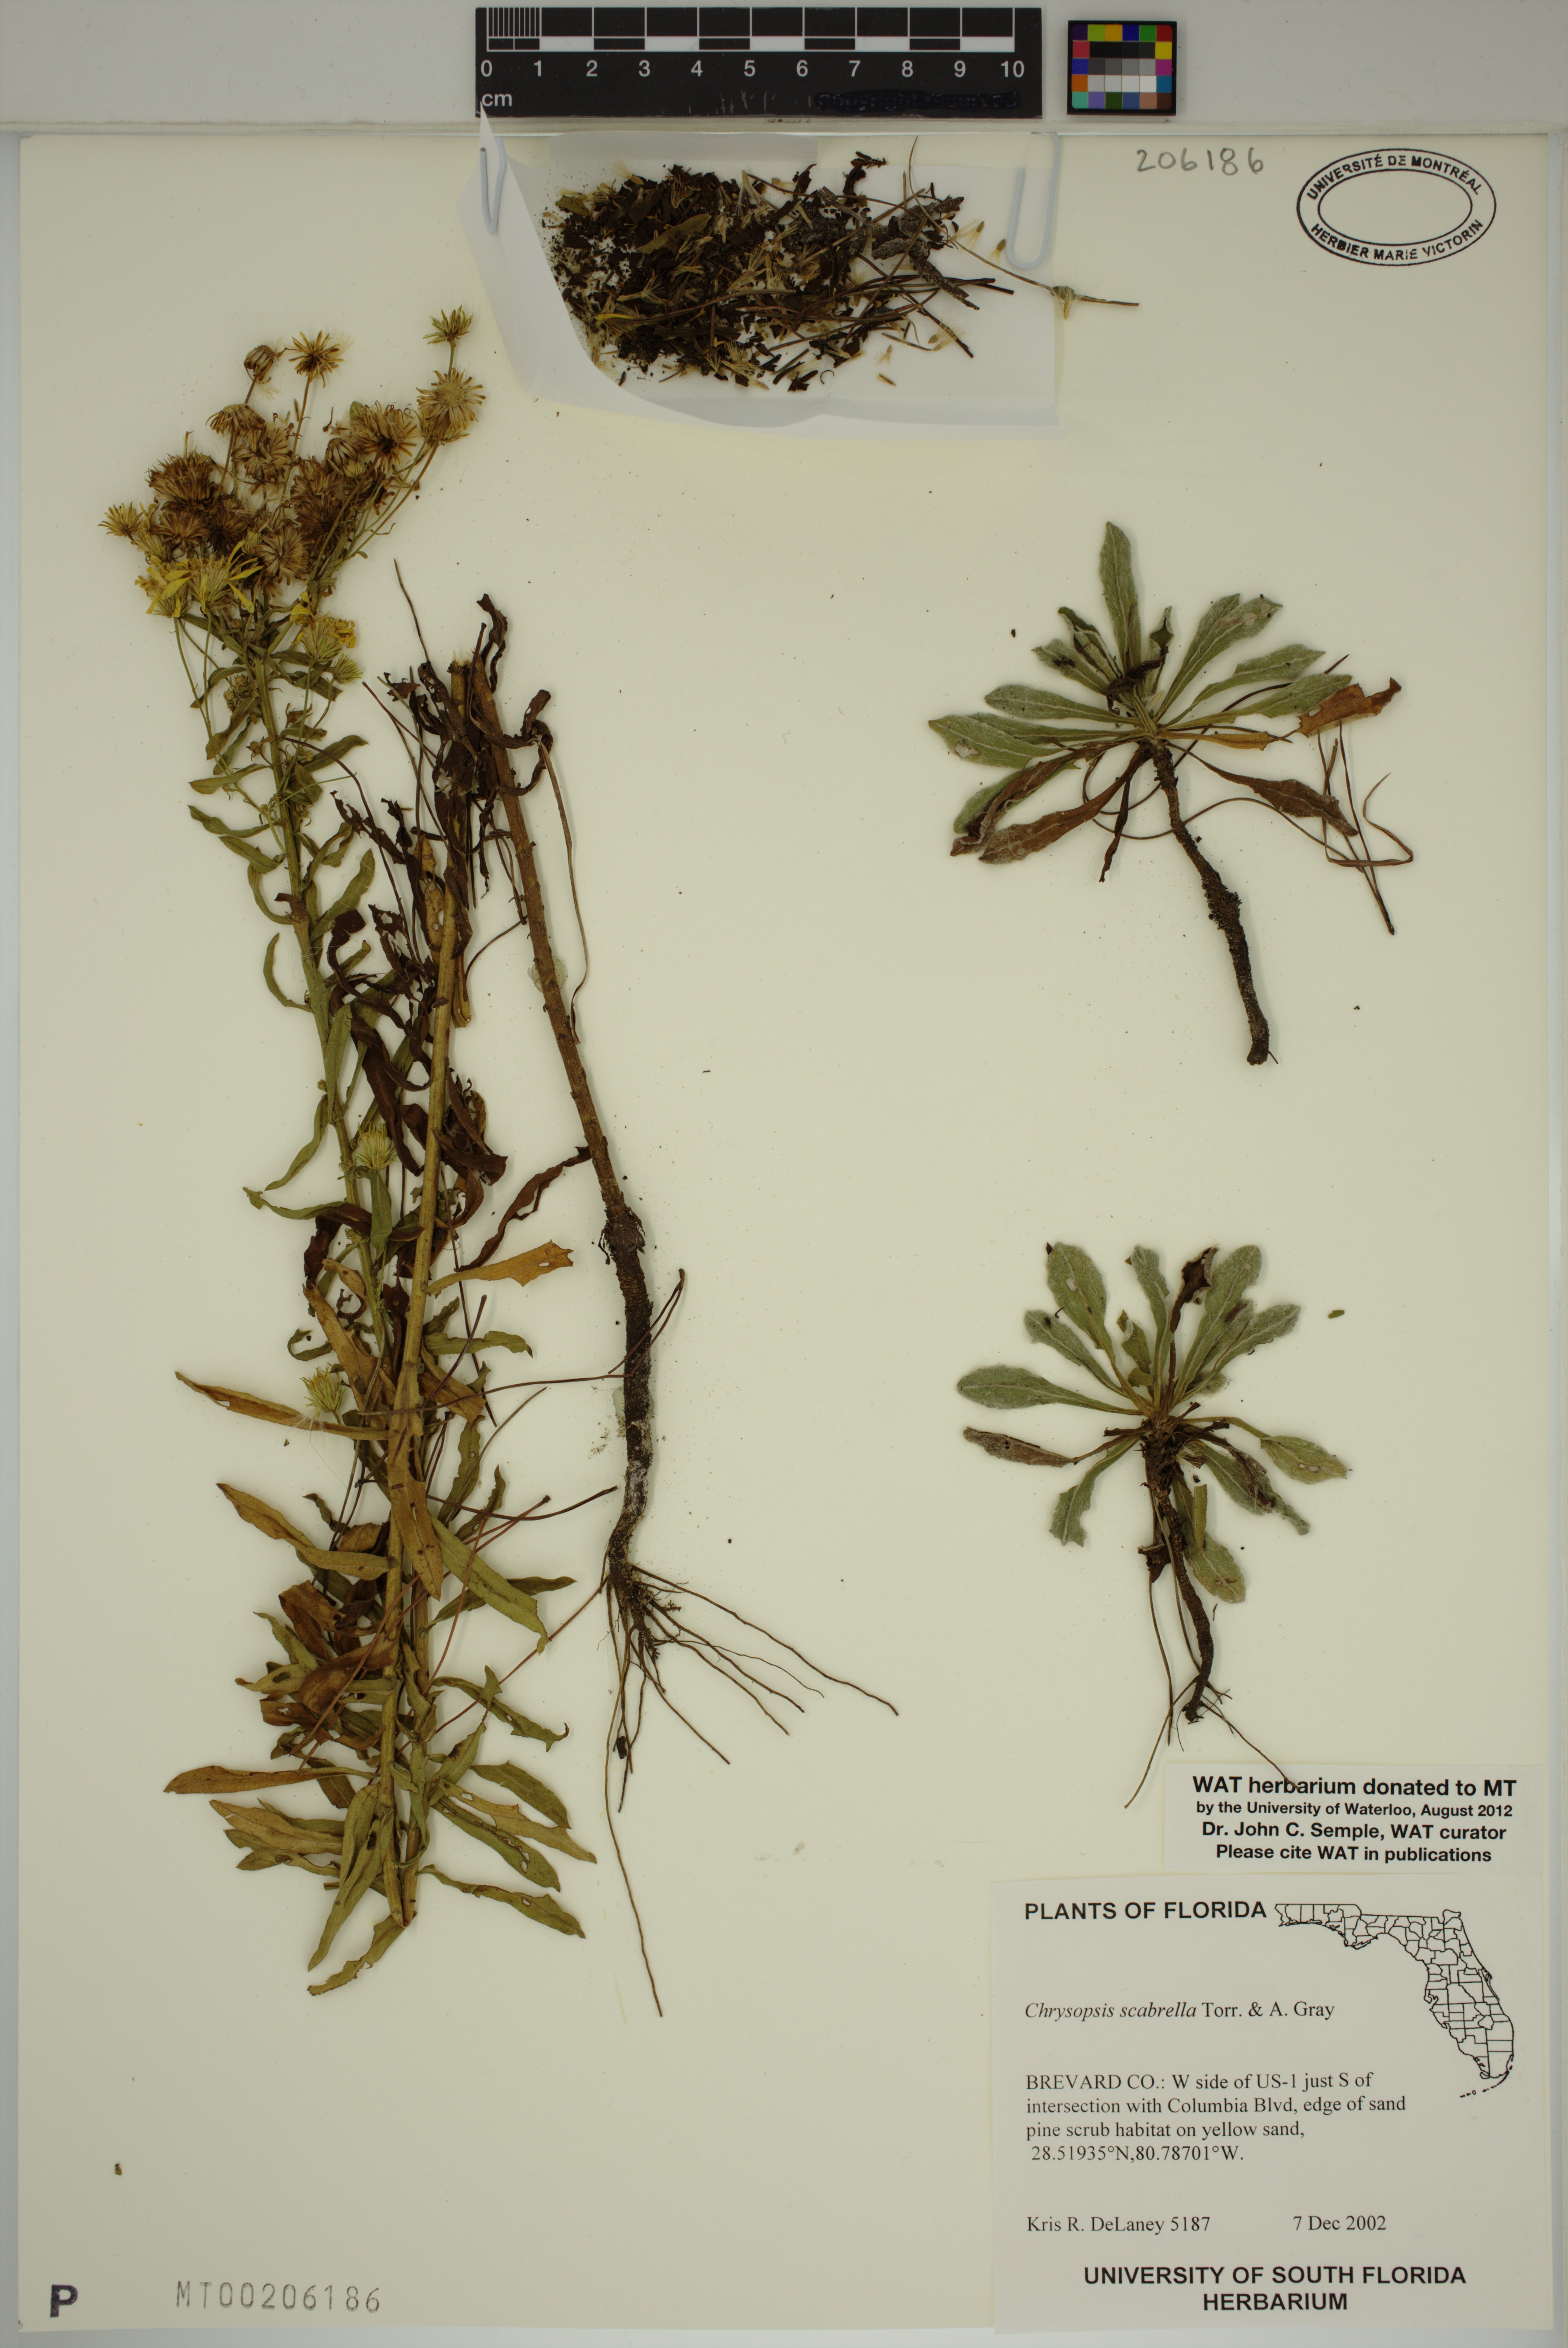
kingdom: Plantae
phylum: Tracheophyta
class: Magnoliopsida
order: Asterales
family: Asteraceae
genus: Chrysopsis
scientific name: Chrysopsis scabrella
